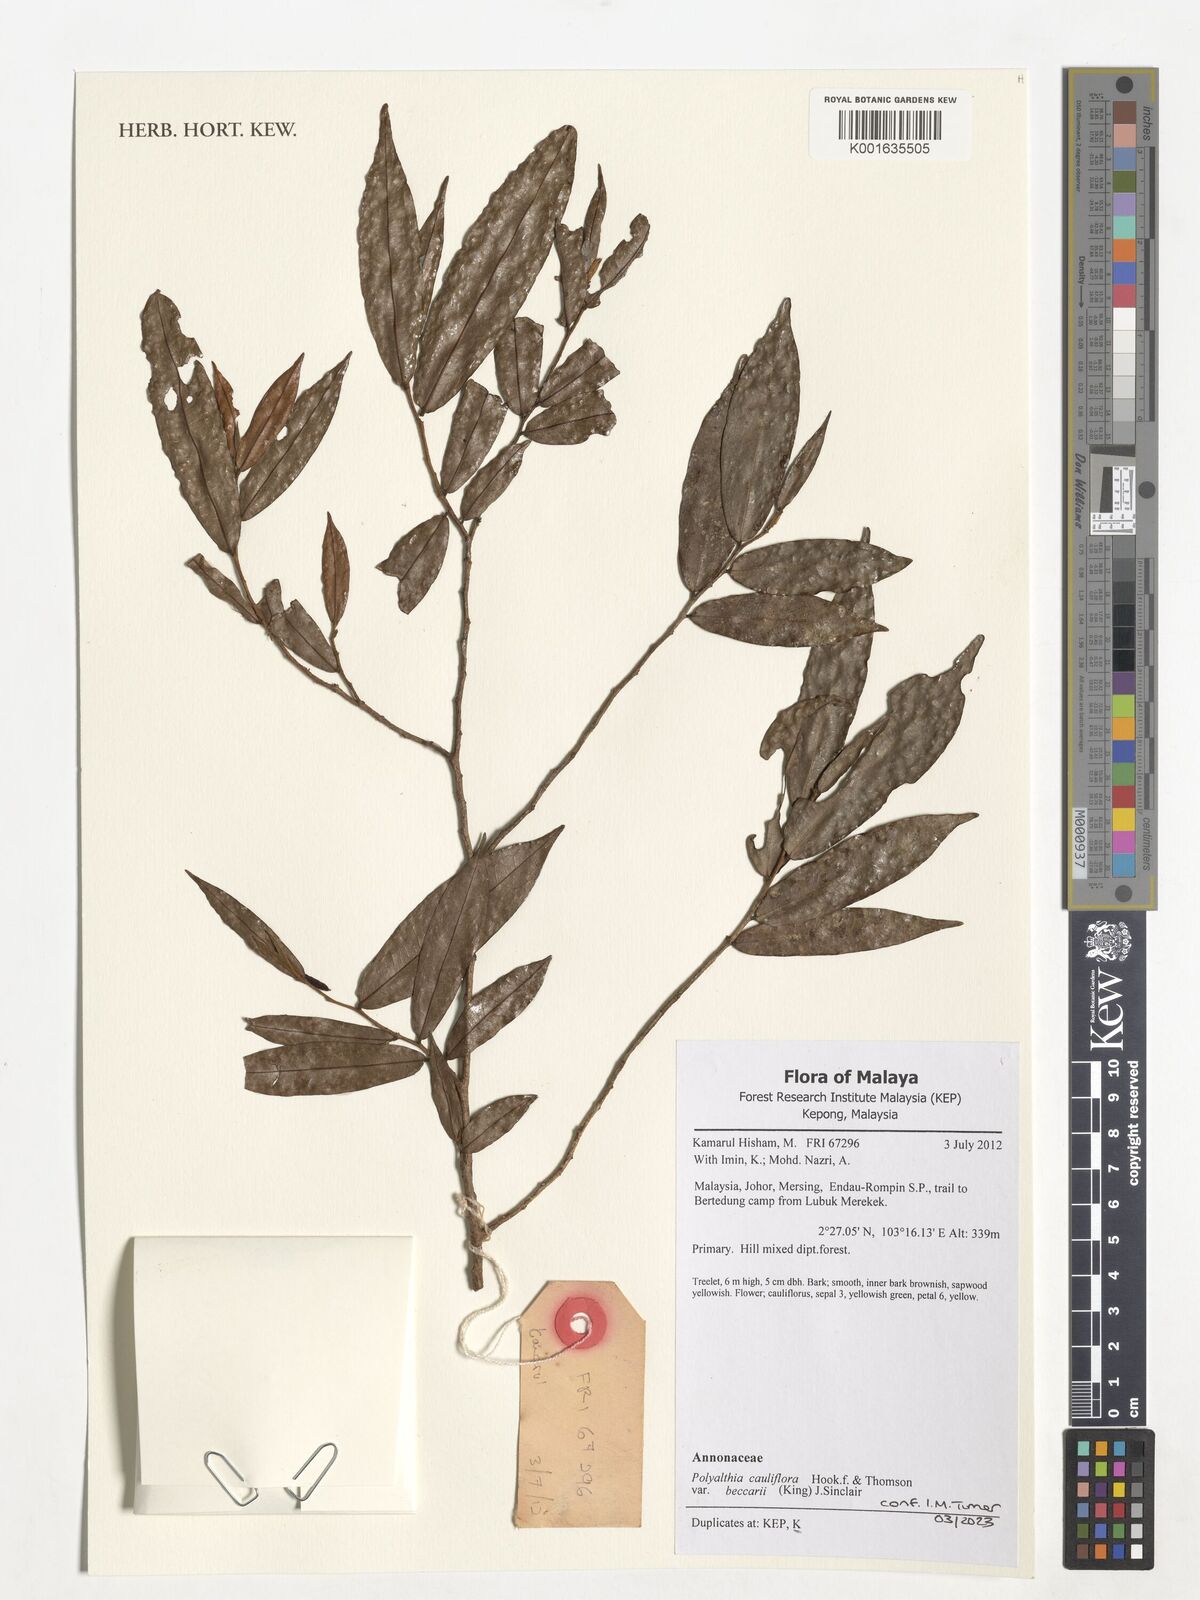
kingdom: Plantae
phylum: Tracheophyta
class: Magnoliopsida
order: Magnoliales
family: Annonaceae
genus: Polyalthia
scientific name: Polyalthia cauliflora
